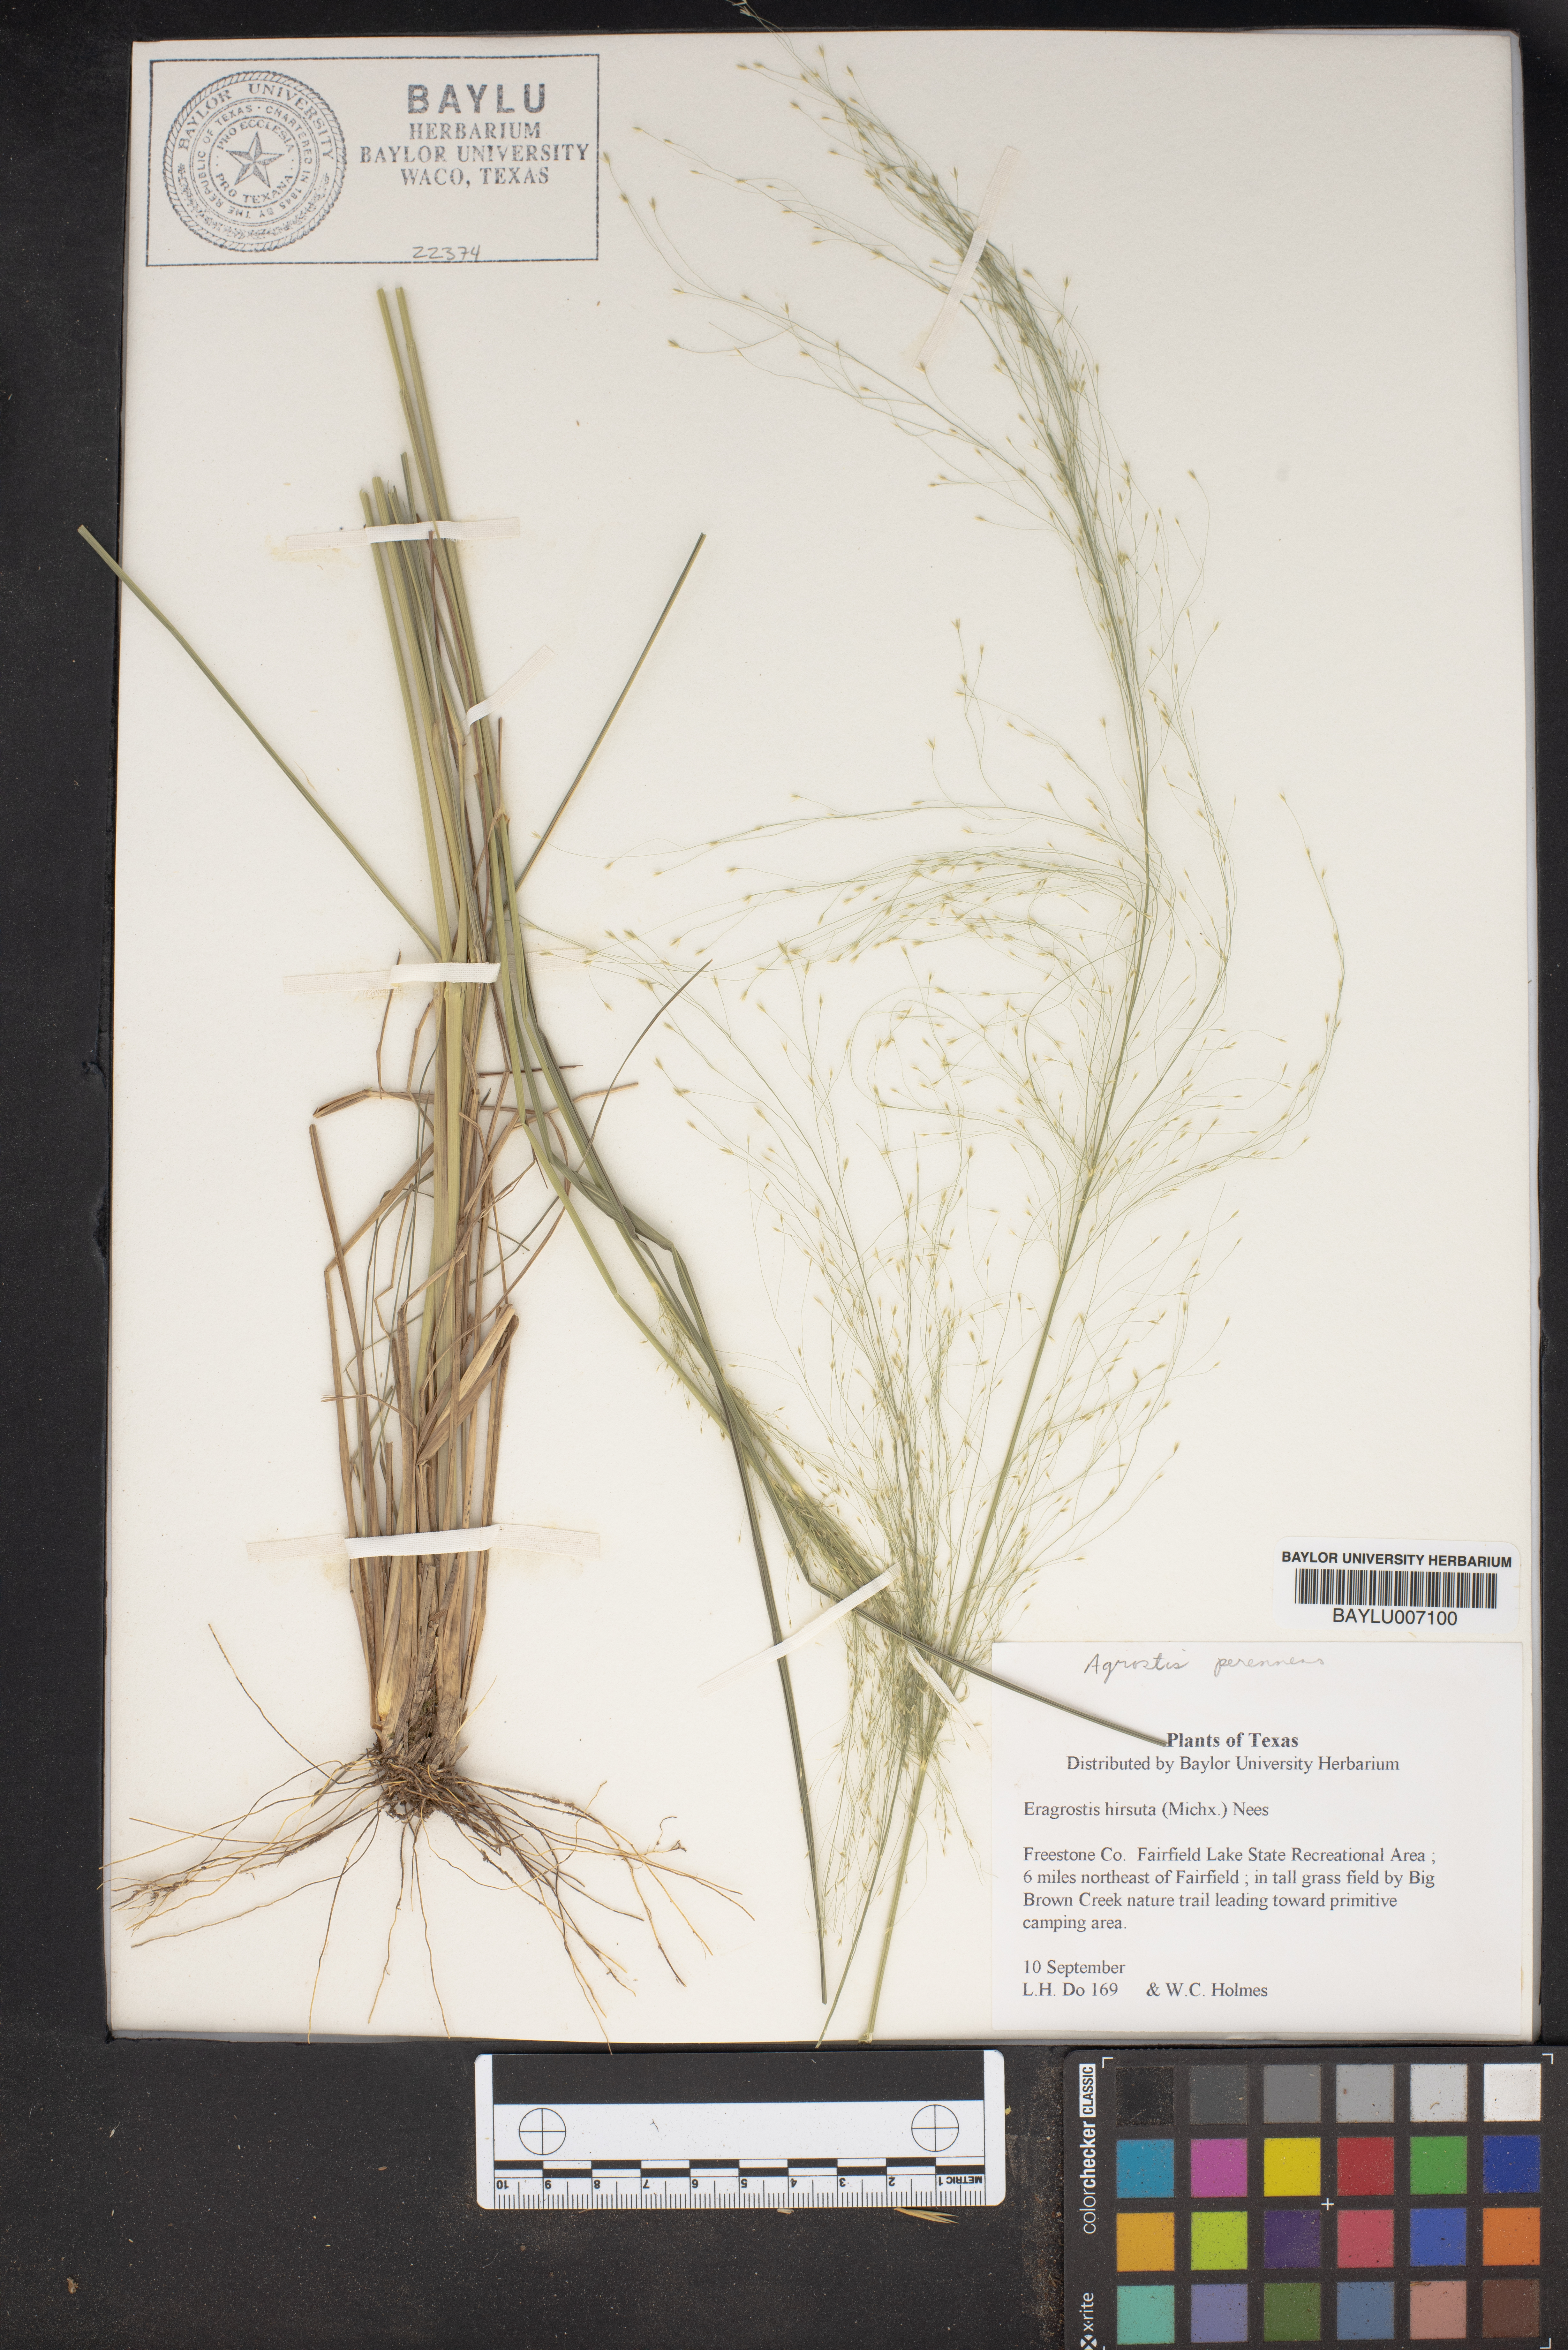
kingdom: Plantae
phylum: Tracheophyta
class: Liliopsida
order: Poales
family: Poaceae
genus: Eragrostis
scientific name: Eragrostis hirsuta
